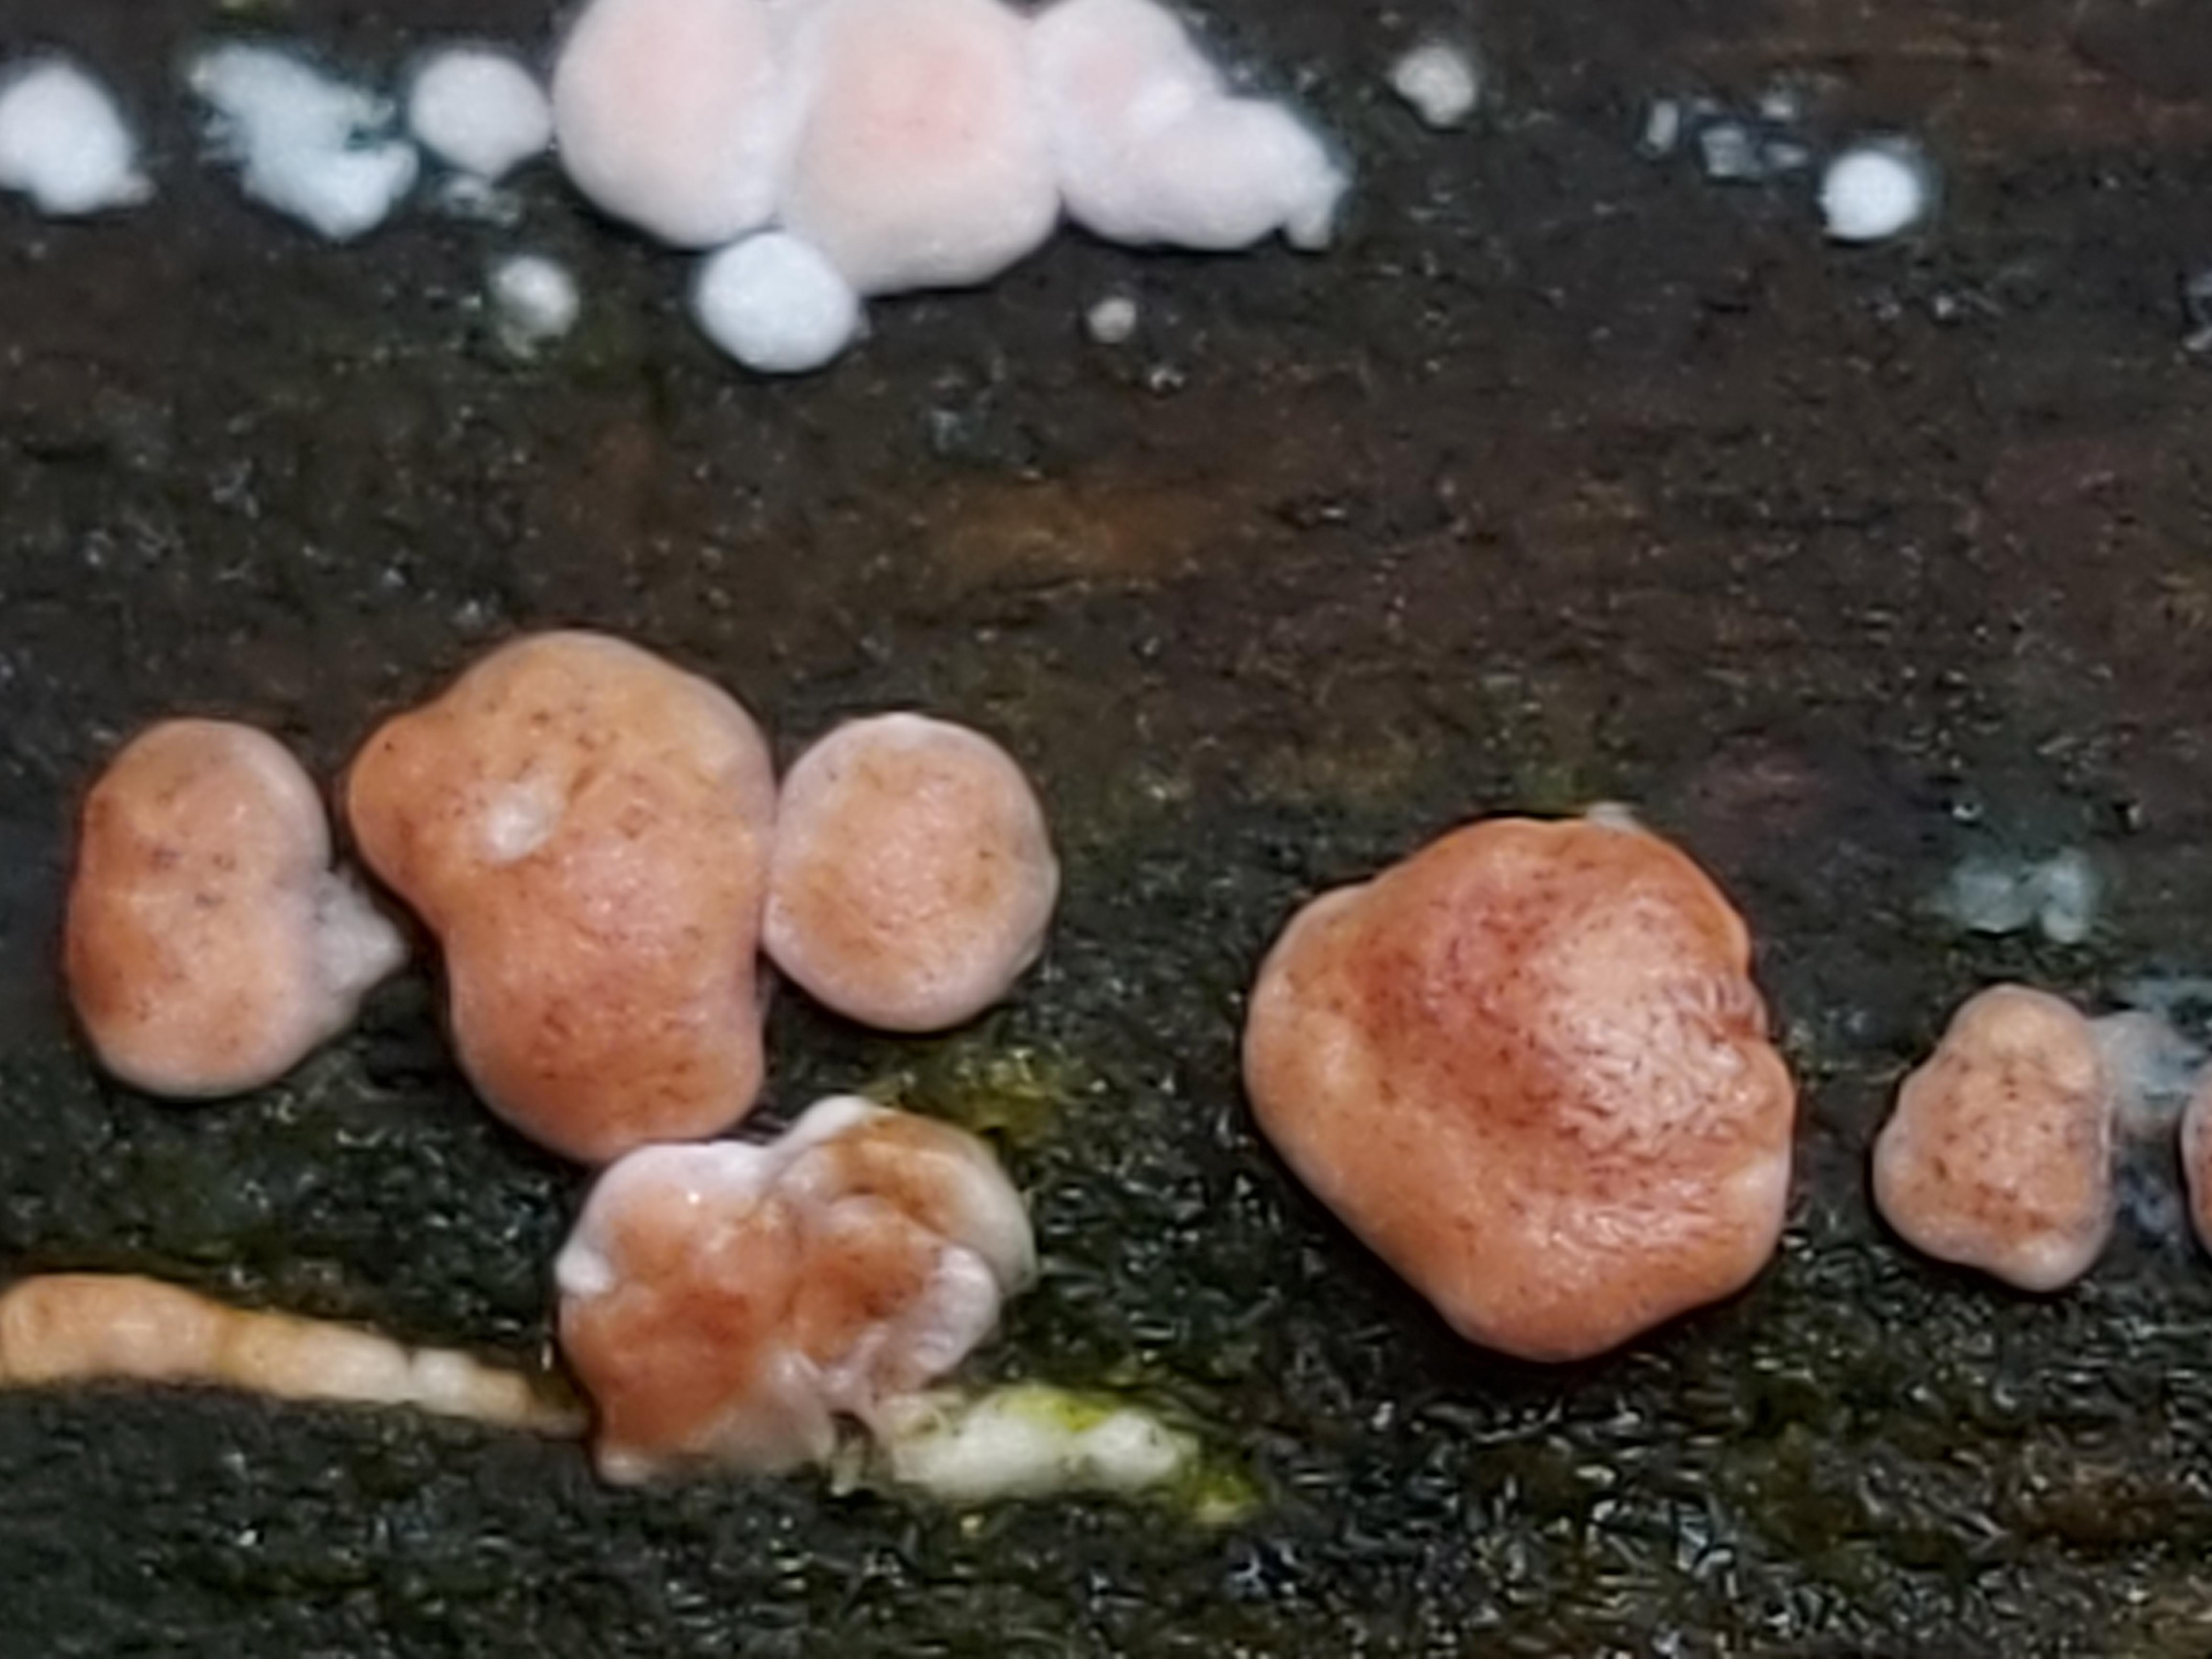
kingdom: Fungi
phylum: Ascomycota
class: Sordariomycetes
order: Hypocreales
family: Hypocreaceae
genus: Trichoderma
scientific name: Trichoderma europaeum
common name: rosabrun kødkerne
